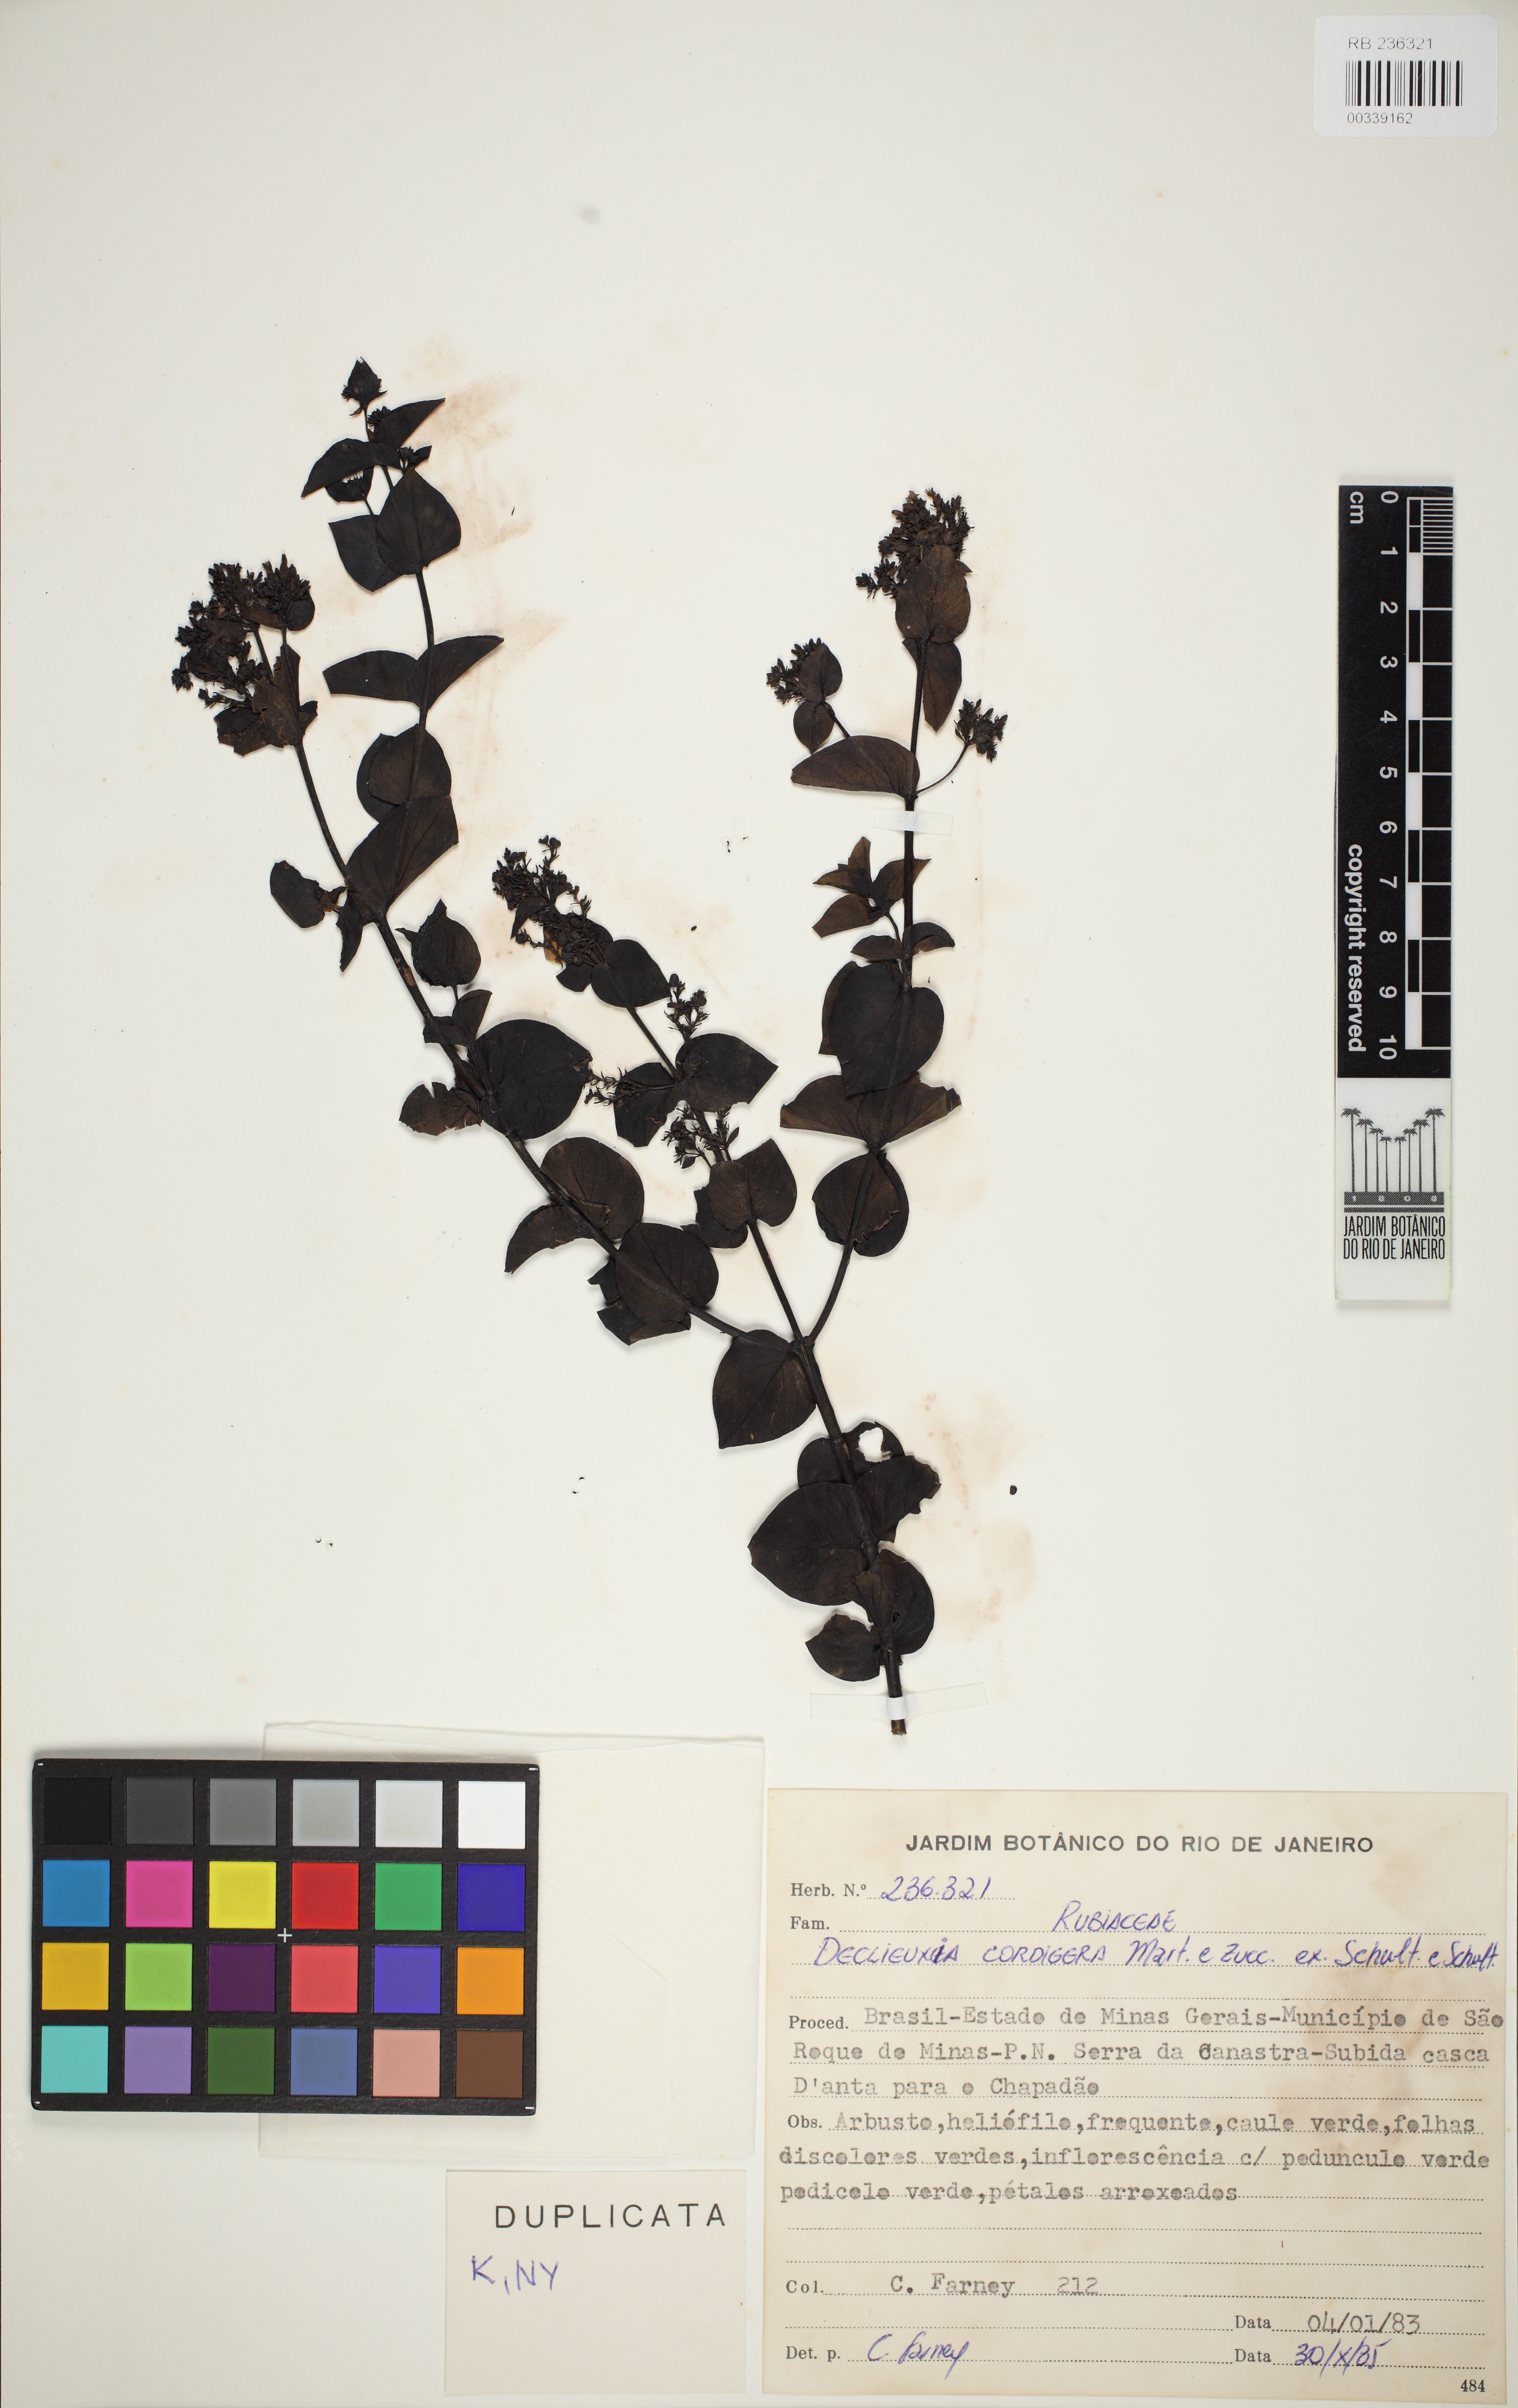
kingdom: Plantae
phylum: Tracheophyta
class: Magnoliopsida
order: Gentianales
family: Rubiaceae
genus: Declieuxia
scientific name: Declieuxia deltoidea
